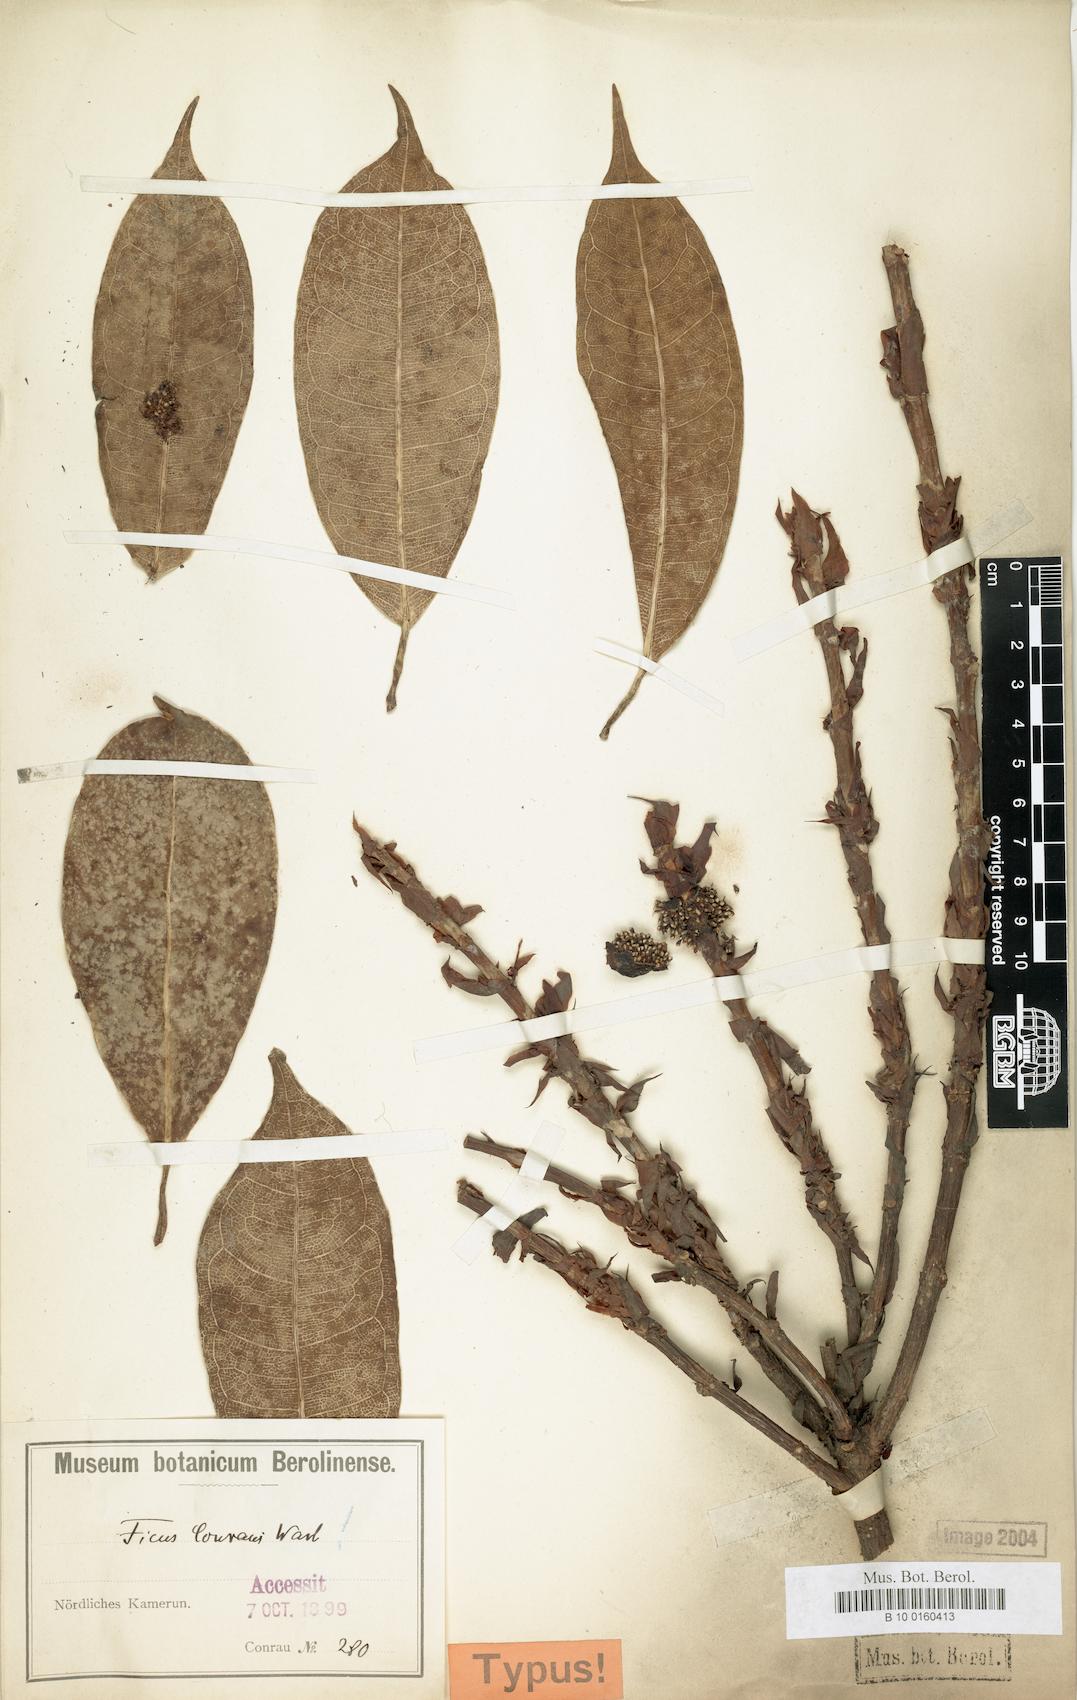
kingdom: Plantae
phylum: Tracheophyta
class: Magnoliopsida
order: Rosales
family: Moraceae
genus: Ficus
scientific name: Ficus conraui
